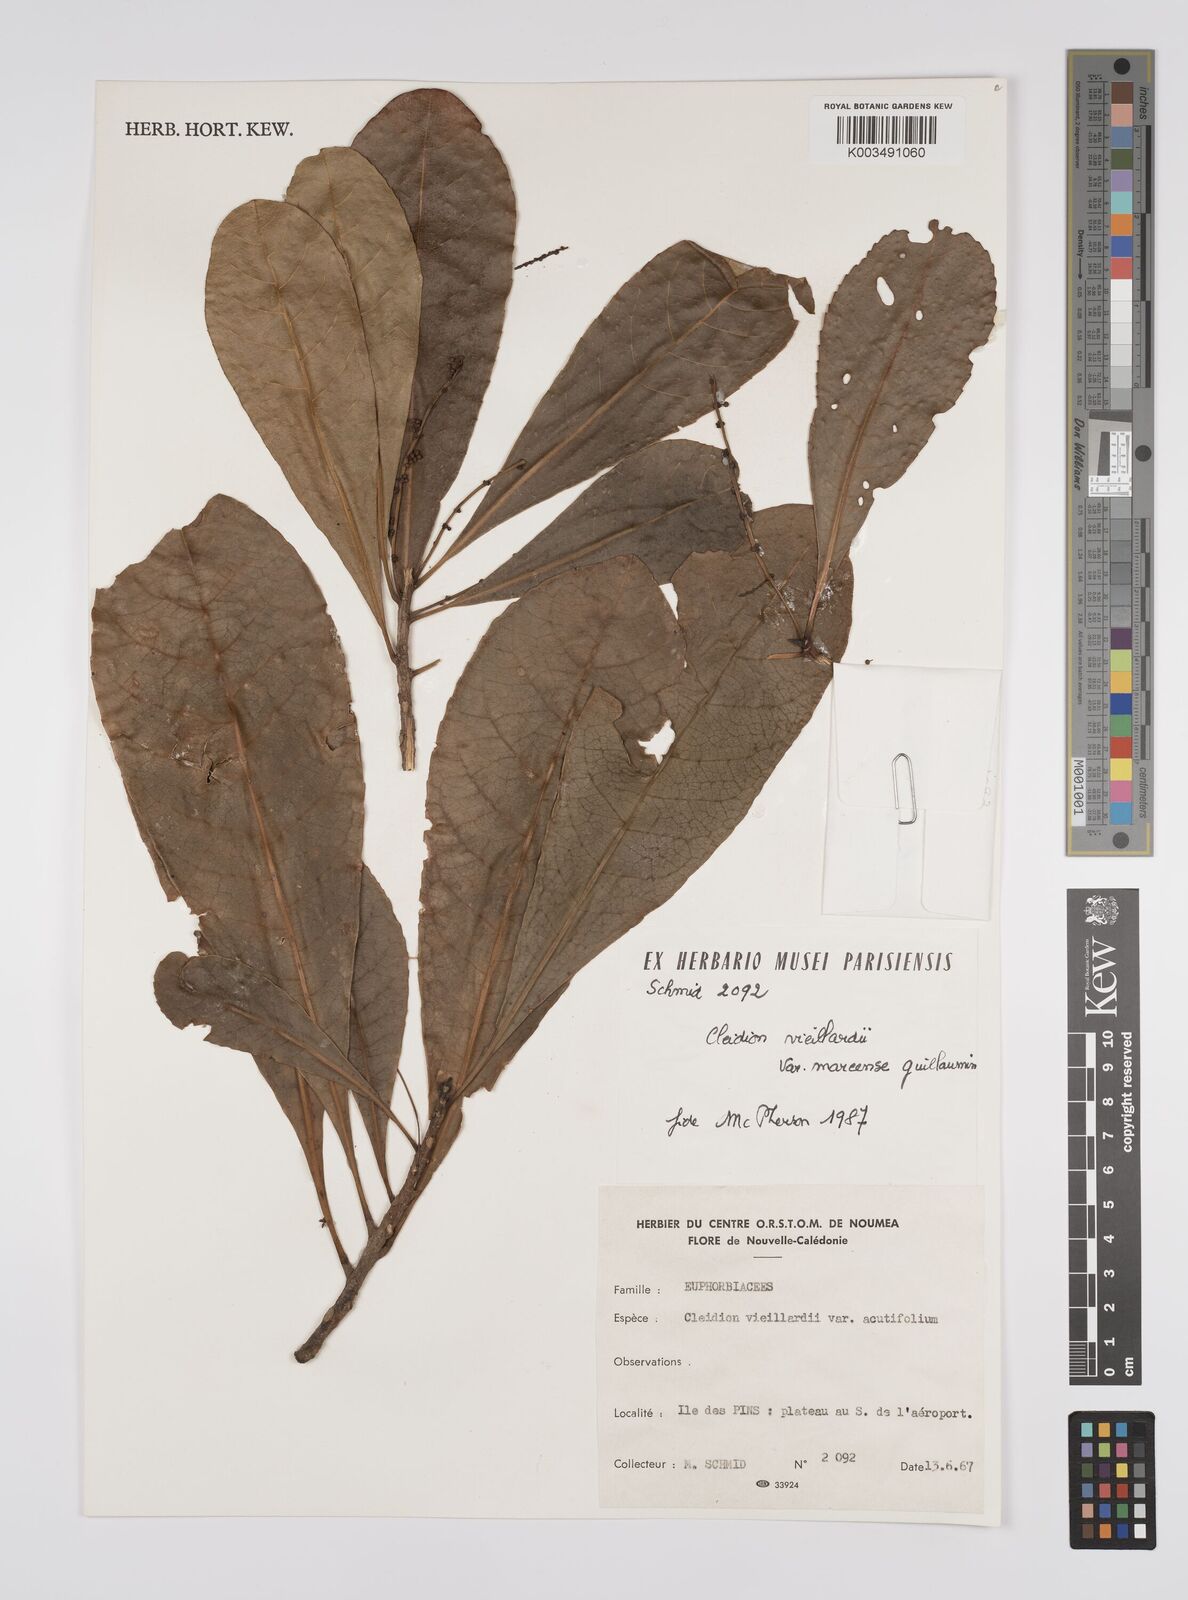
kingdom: Plantae
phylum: Tracheophyta
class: Magnoliopsida
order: Malpighiales
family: Euphorbiaceae
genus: Cleidion
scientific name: Cleidion vieillardii
